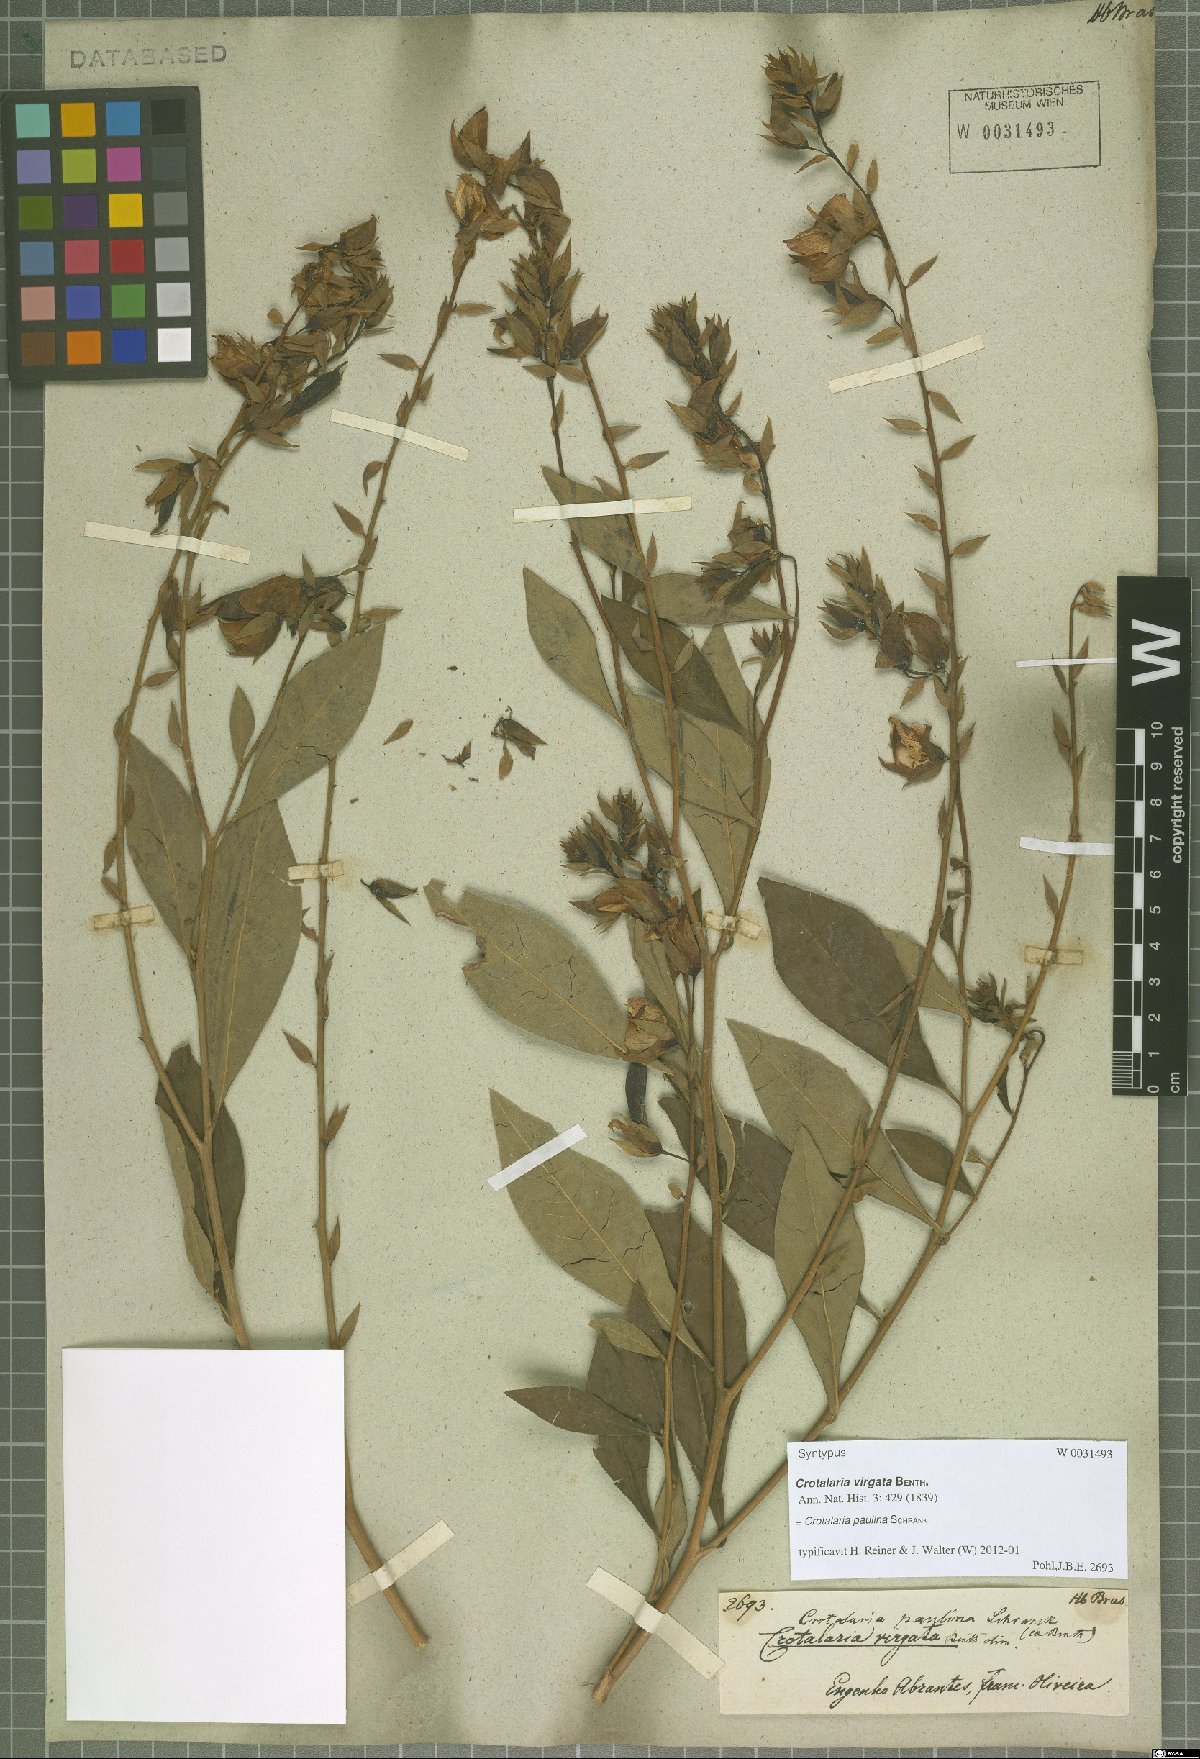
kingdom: Plantae
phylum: Tracheophyta
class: Magnoliopsida
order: Fabales
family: Fabaceae
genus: Crotalaria
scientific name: Crotalaria paulina
